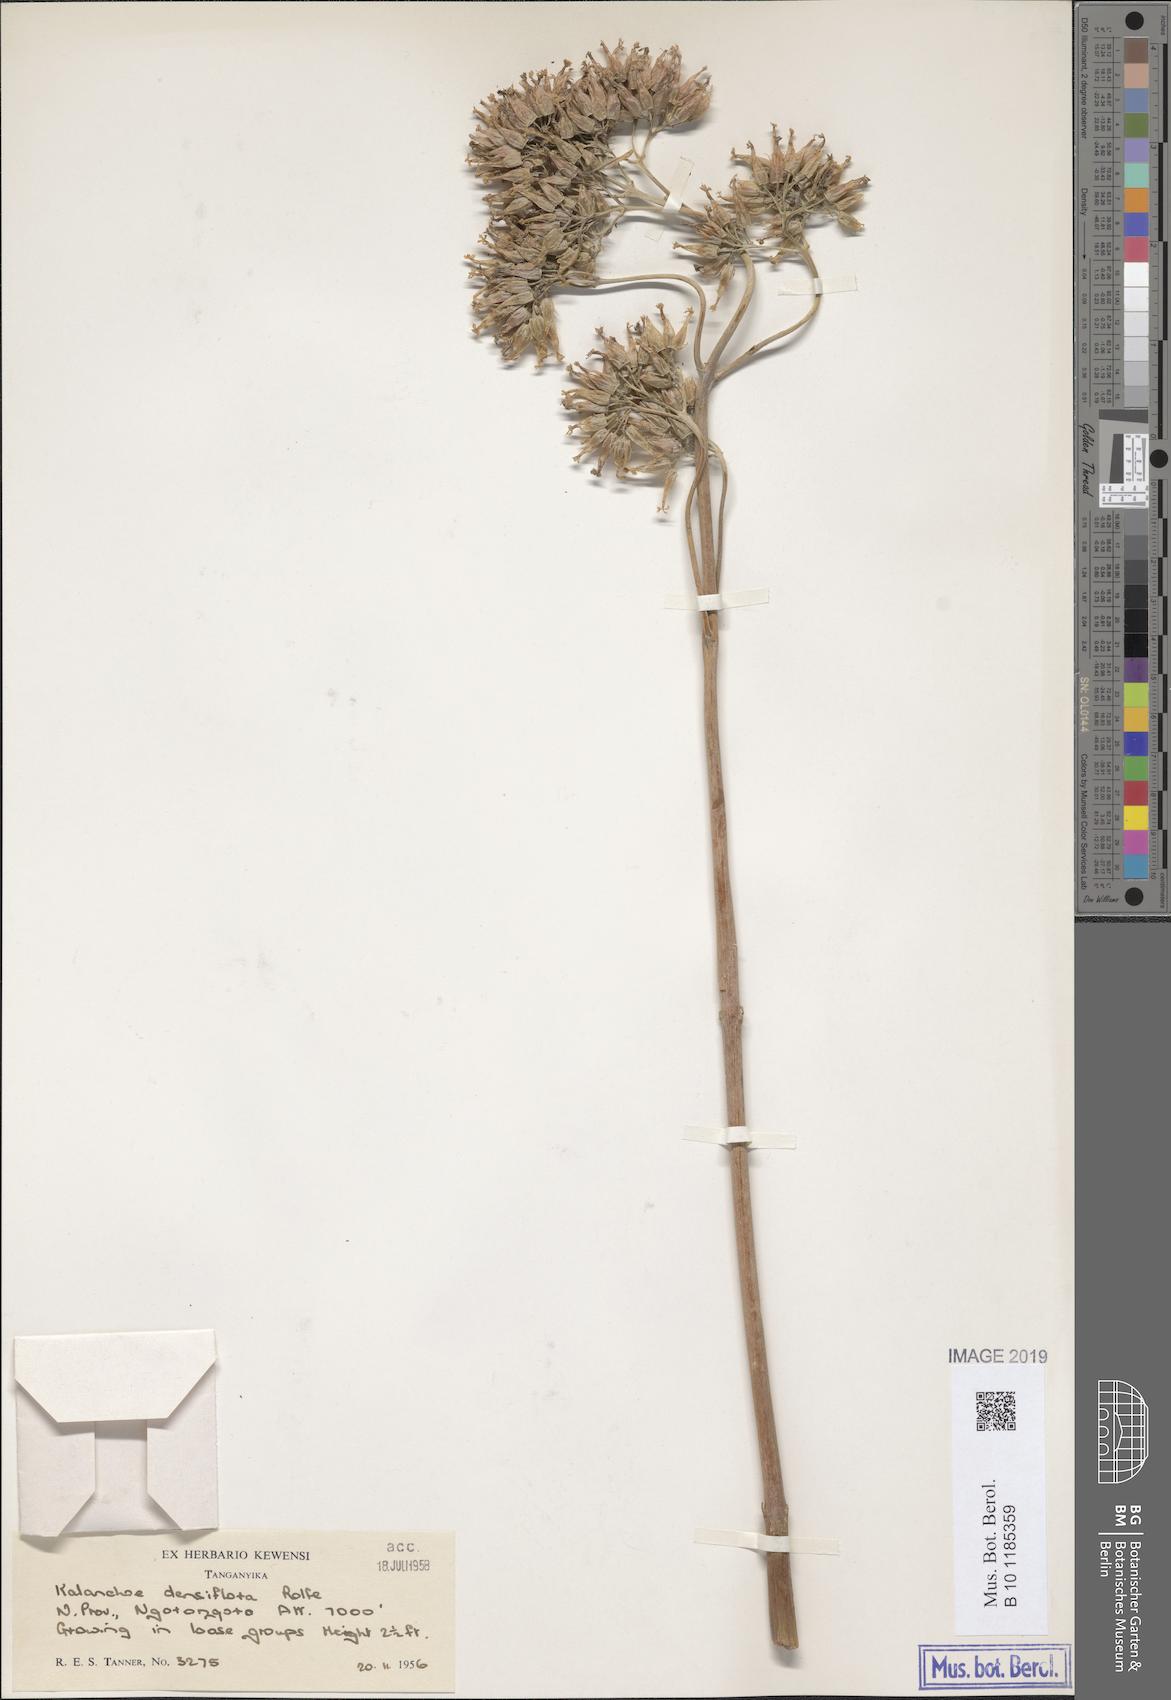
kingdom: Plantae
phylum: Tracheophyta
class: Magnoliopsida
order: Saxifragales
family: Crassulaceae
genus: Kalanchoe
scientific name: Kalanchoe densiflora
